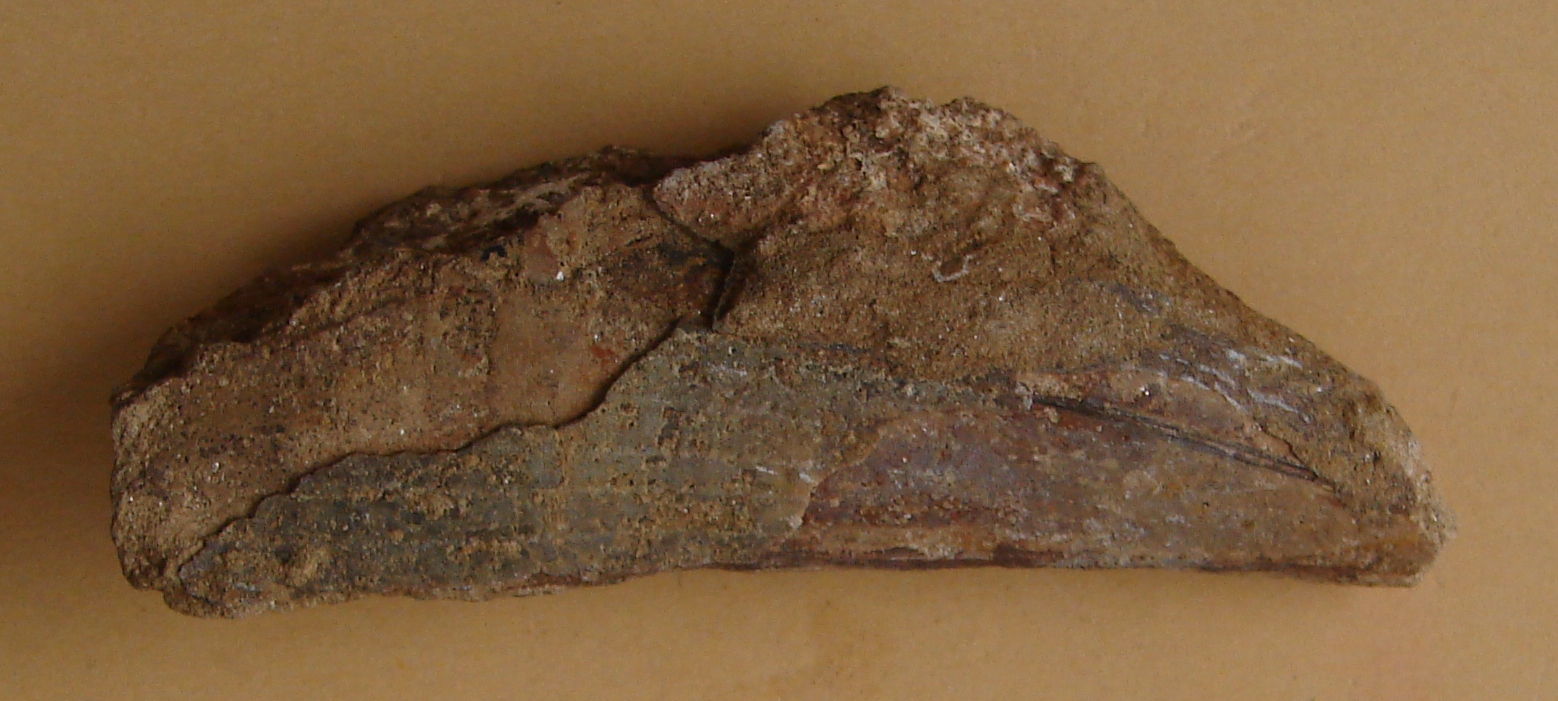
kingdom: Animalia
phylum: Mollusca
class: Bivalvia
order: Ostreida
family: Pinnidae
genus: Pinna
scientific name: Pinna opalina
